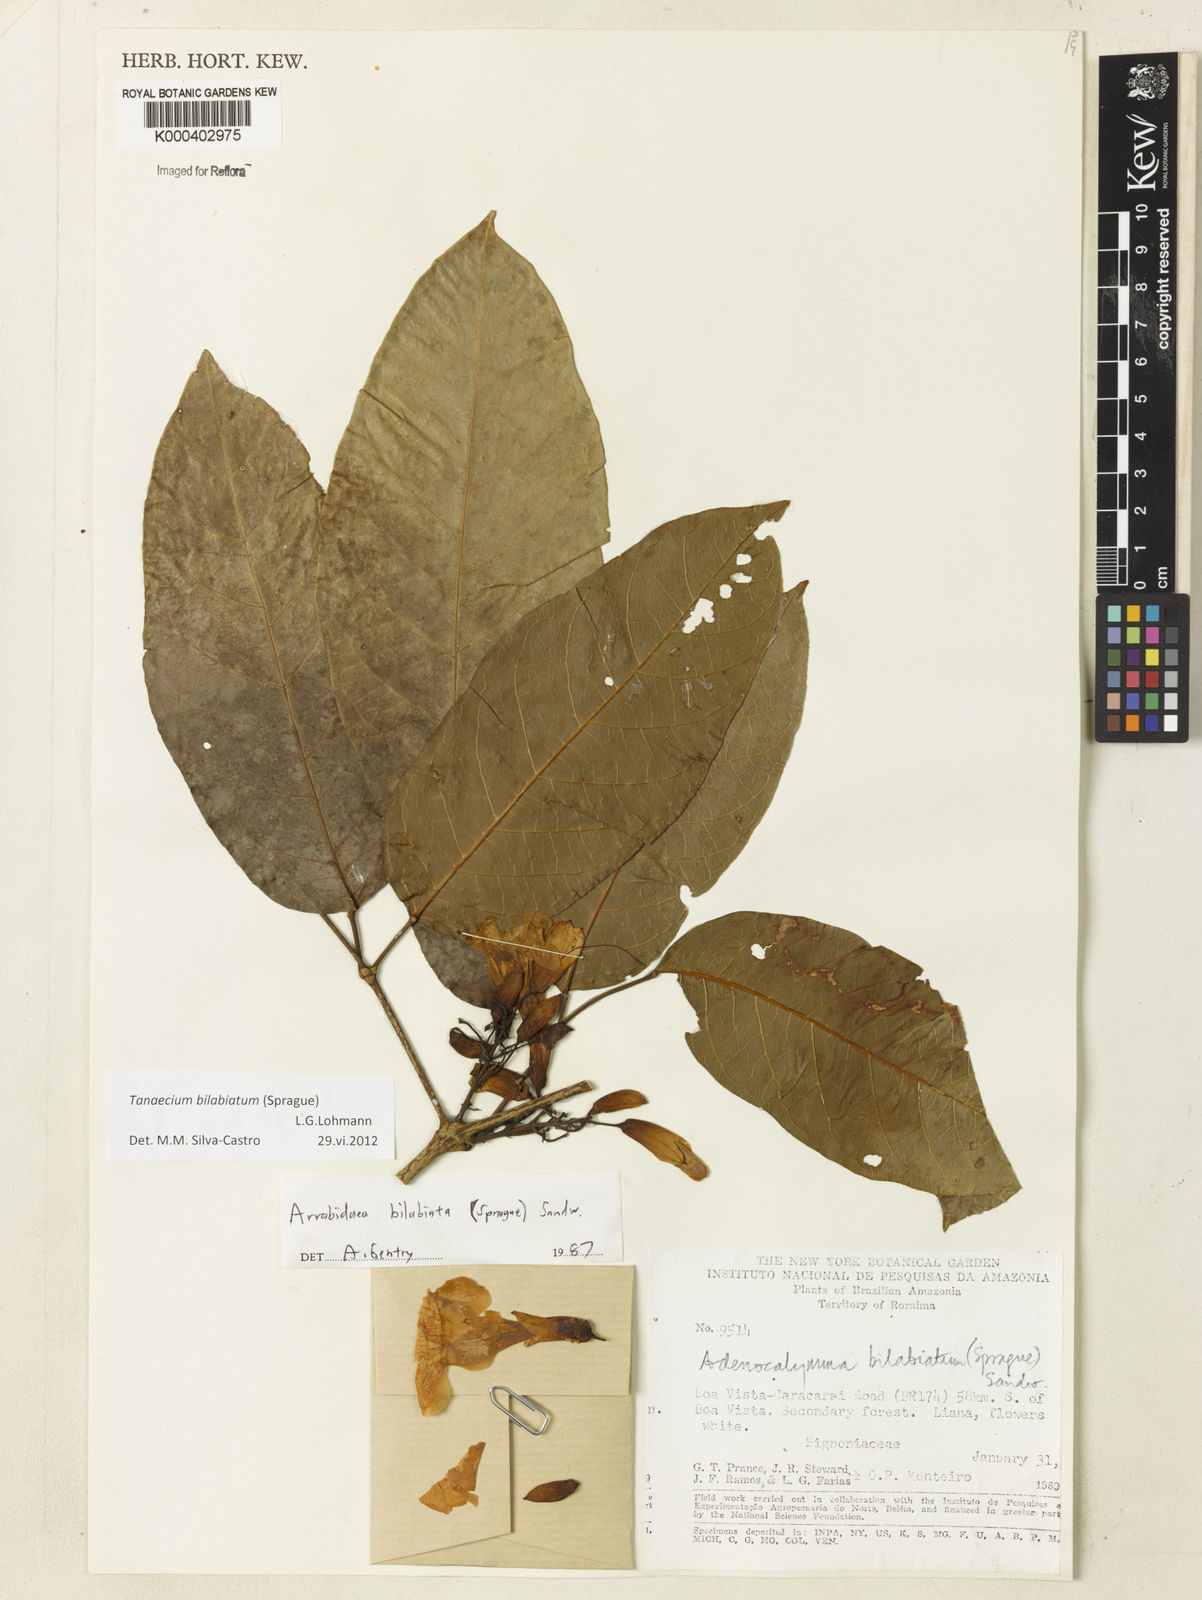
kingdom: Plantae
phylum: Tracheophyta
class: Magnoliopsida
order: Lamiales
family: Bignoniaceae
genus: Tanaecium
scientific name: Tanaecium bilabiatum
